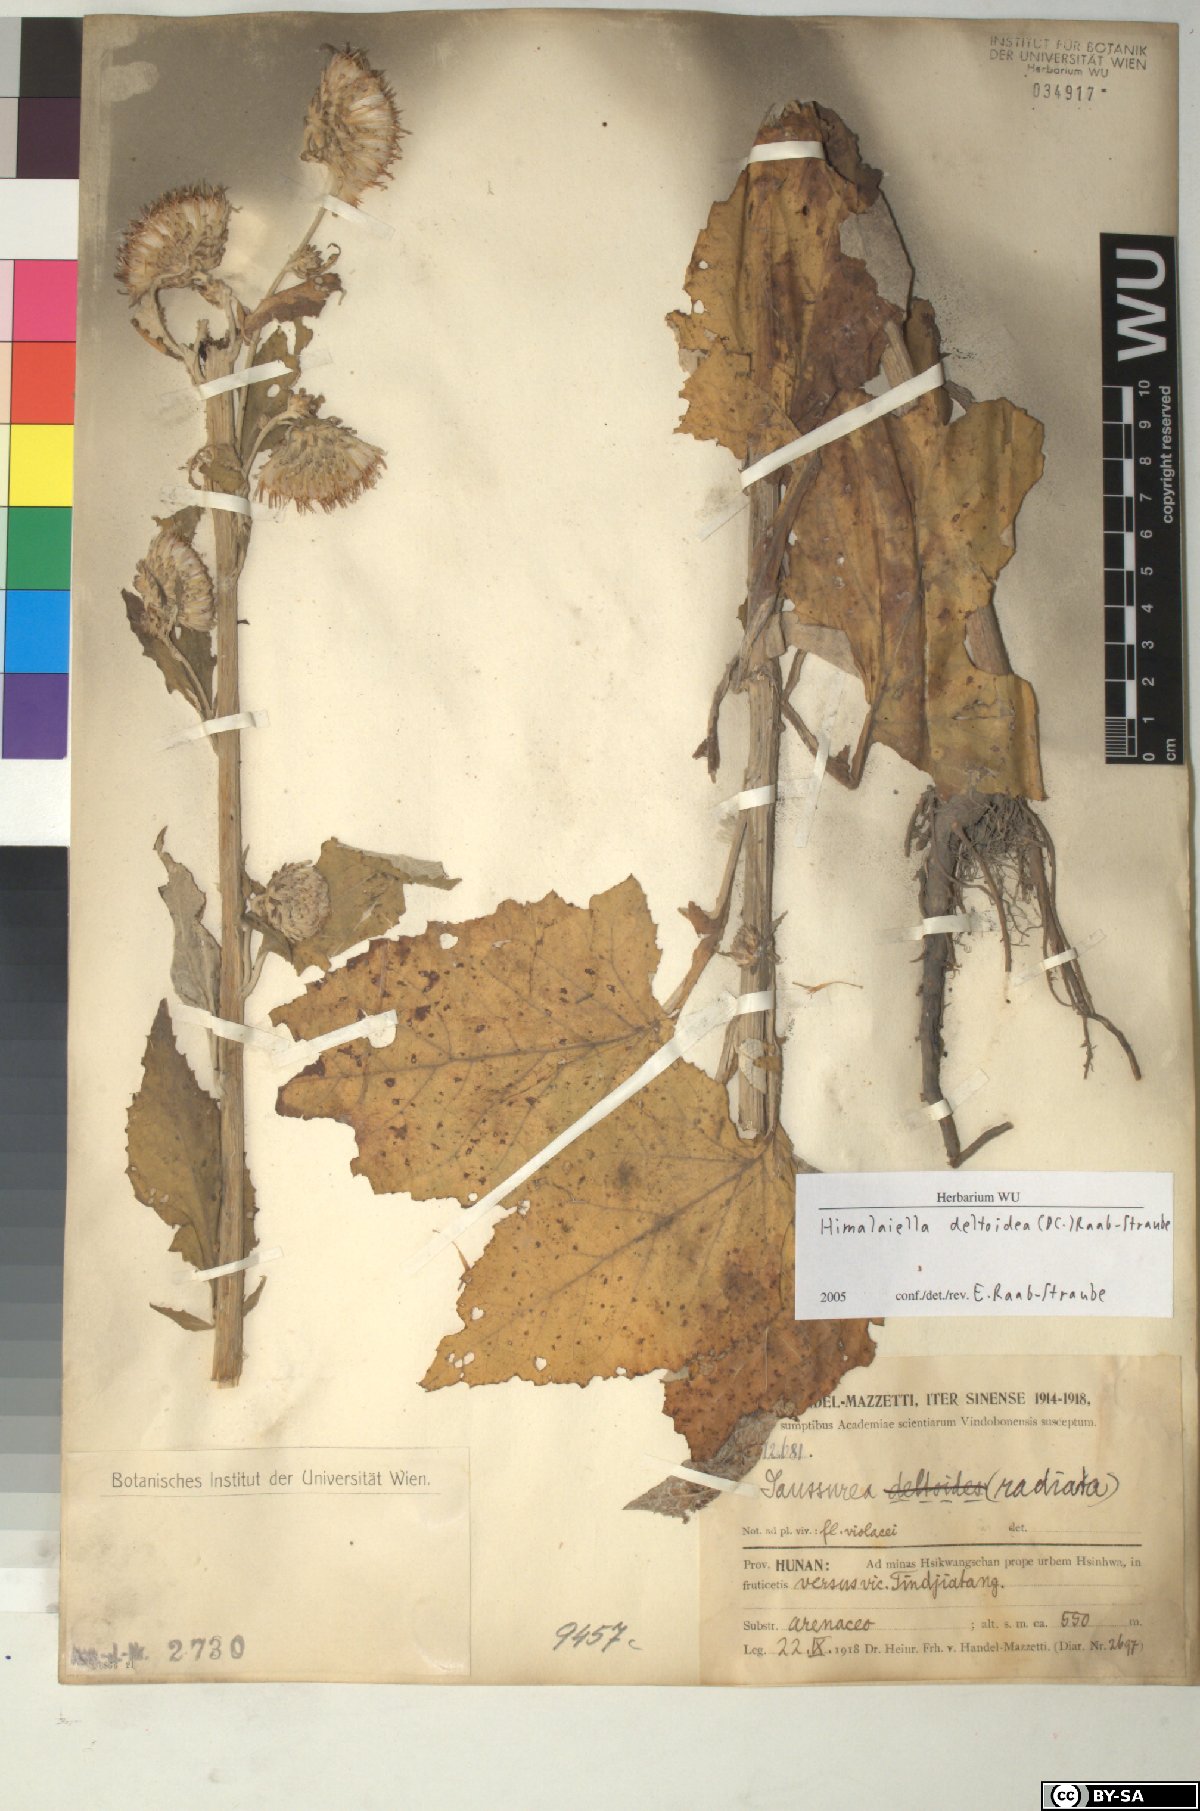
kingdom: Plantae
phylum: Tracheophyta
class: Magnoliopsida
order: Asterales
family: Asteraceae
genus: Jurinea
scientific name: Jurinea deltoidea
